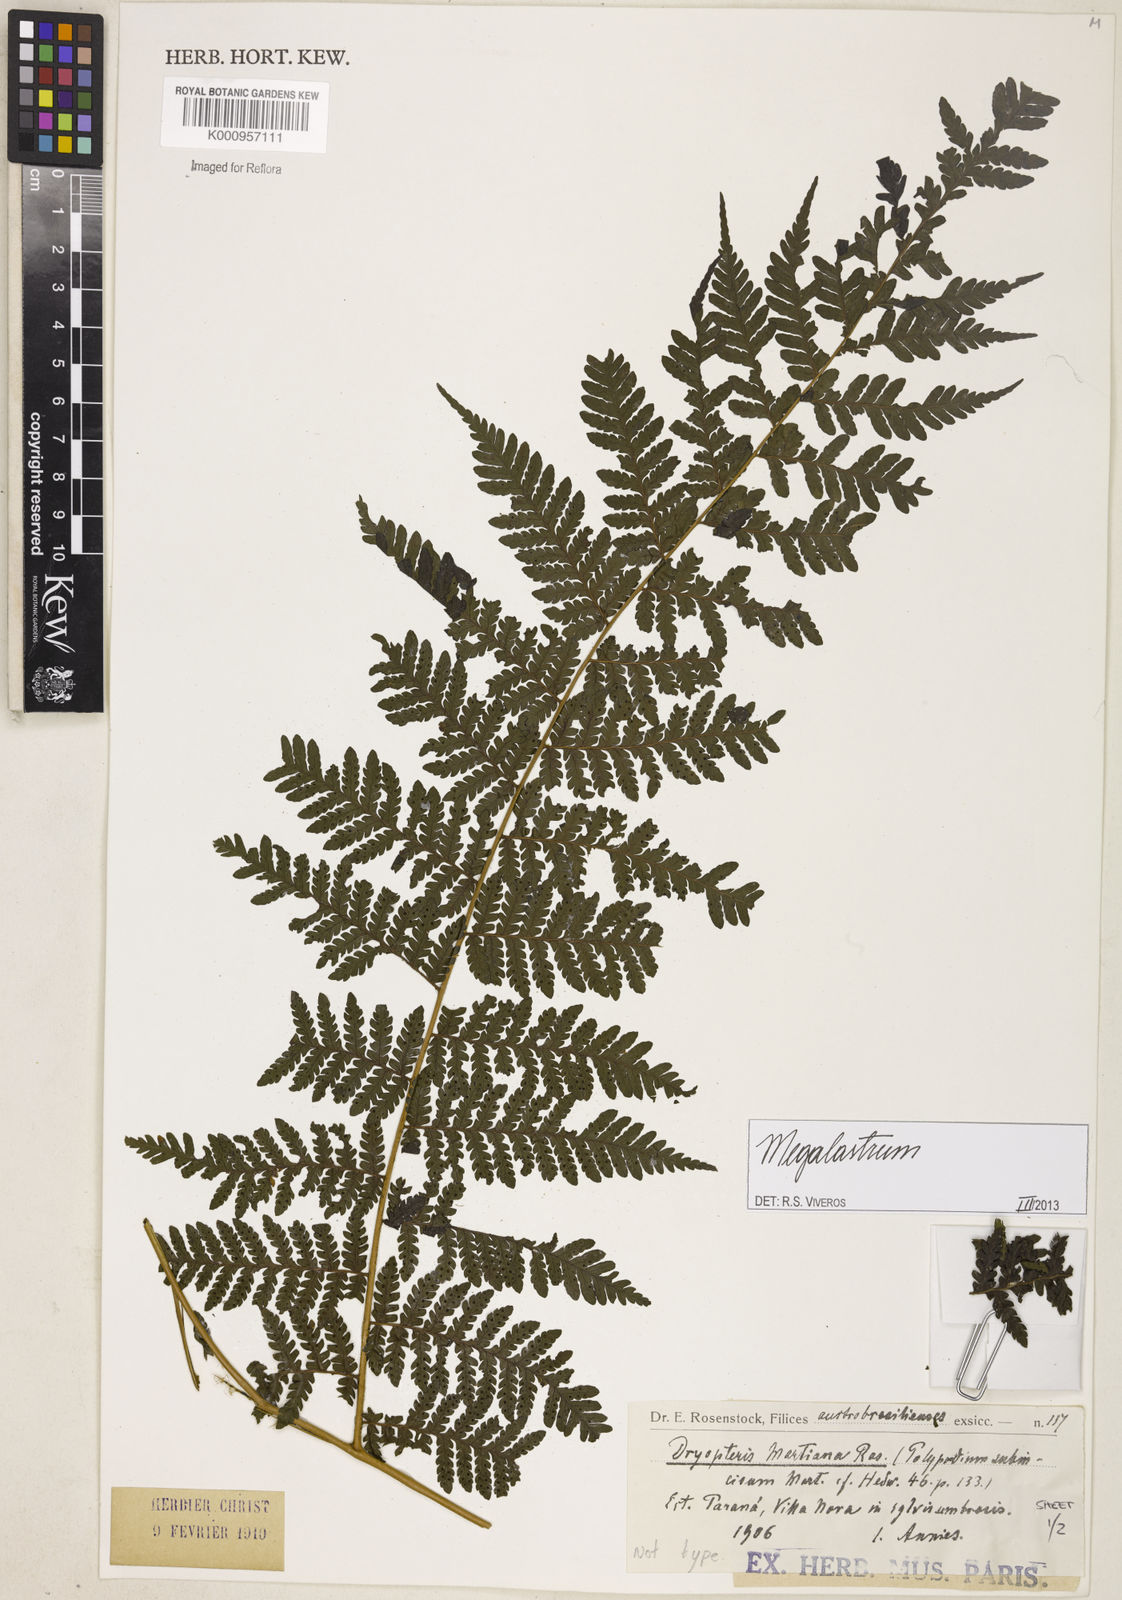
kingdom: Plantae
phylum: Tracheophyta
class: Polypodiopsida
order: Polypodiales
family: Dryopteridaceae
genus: Megalastrum
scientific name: Megalastrum
